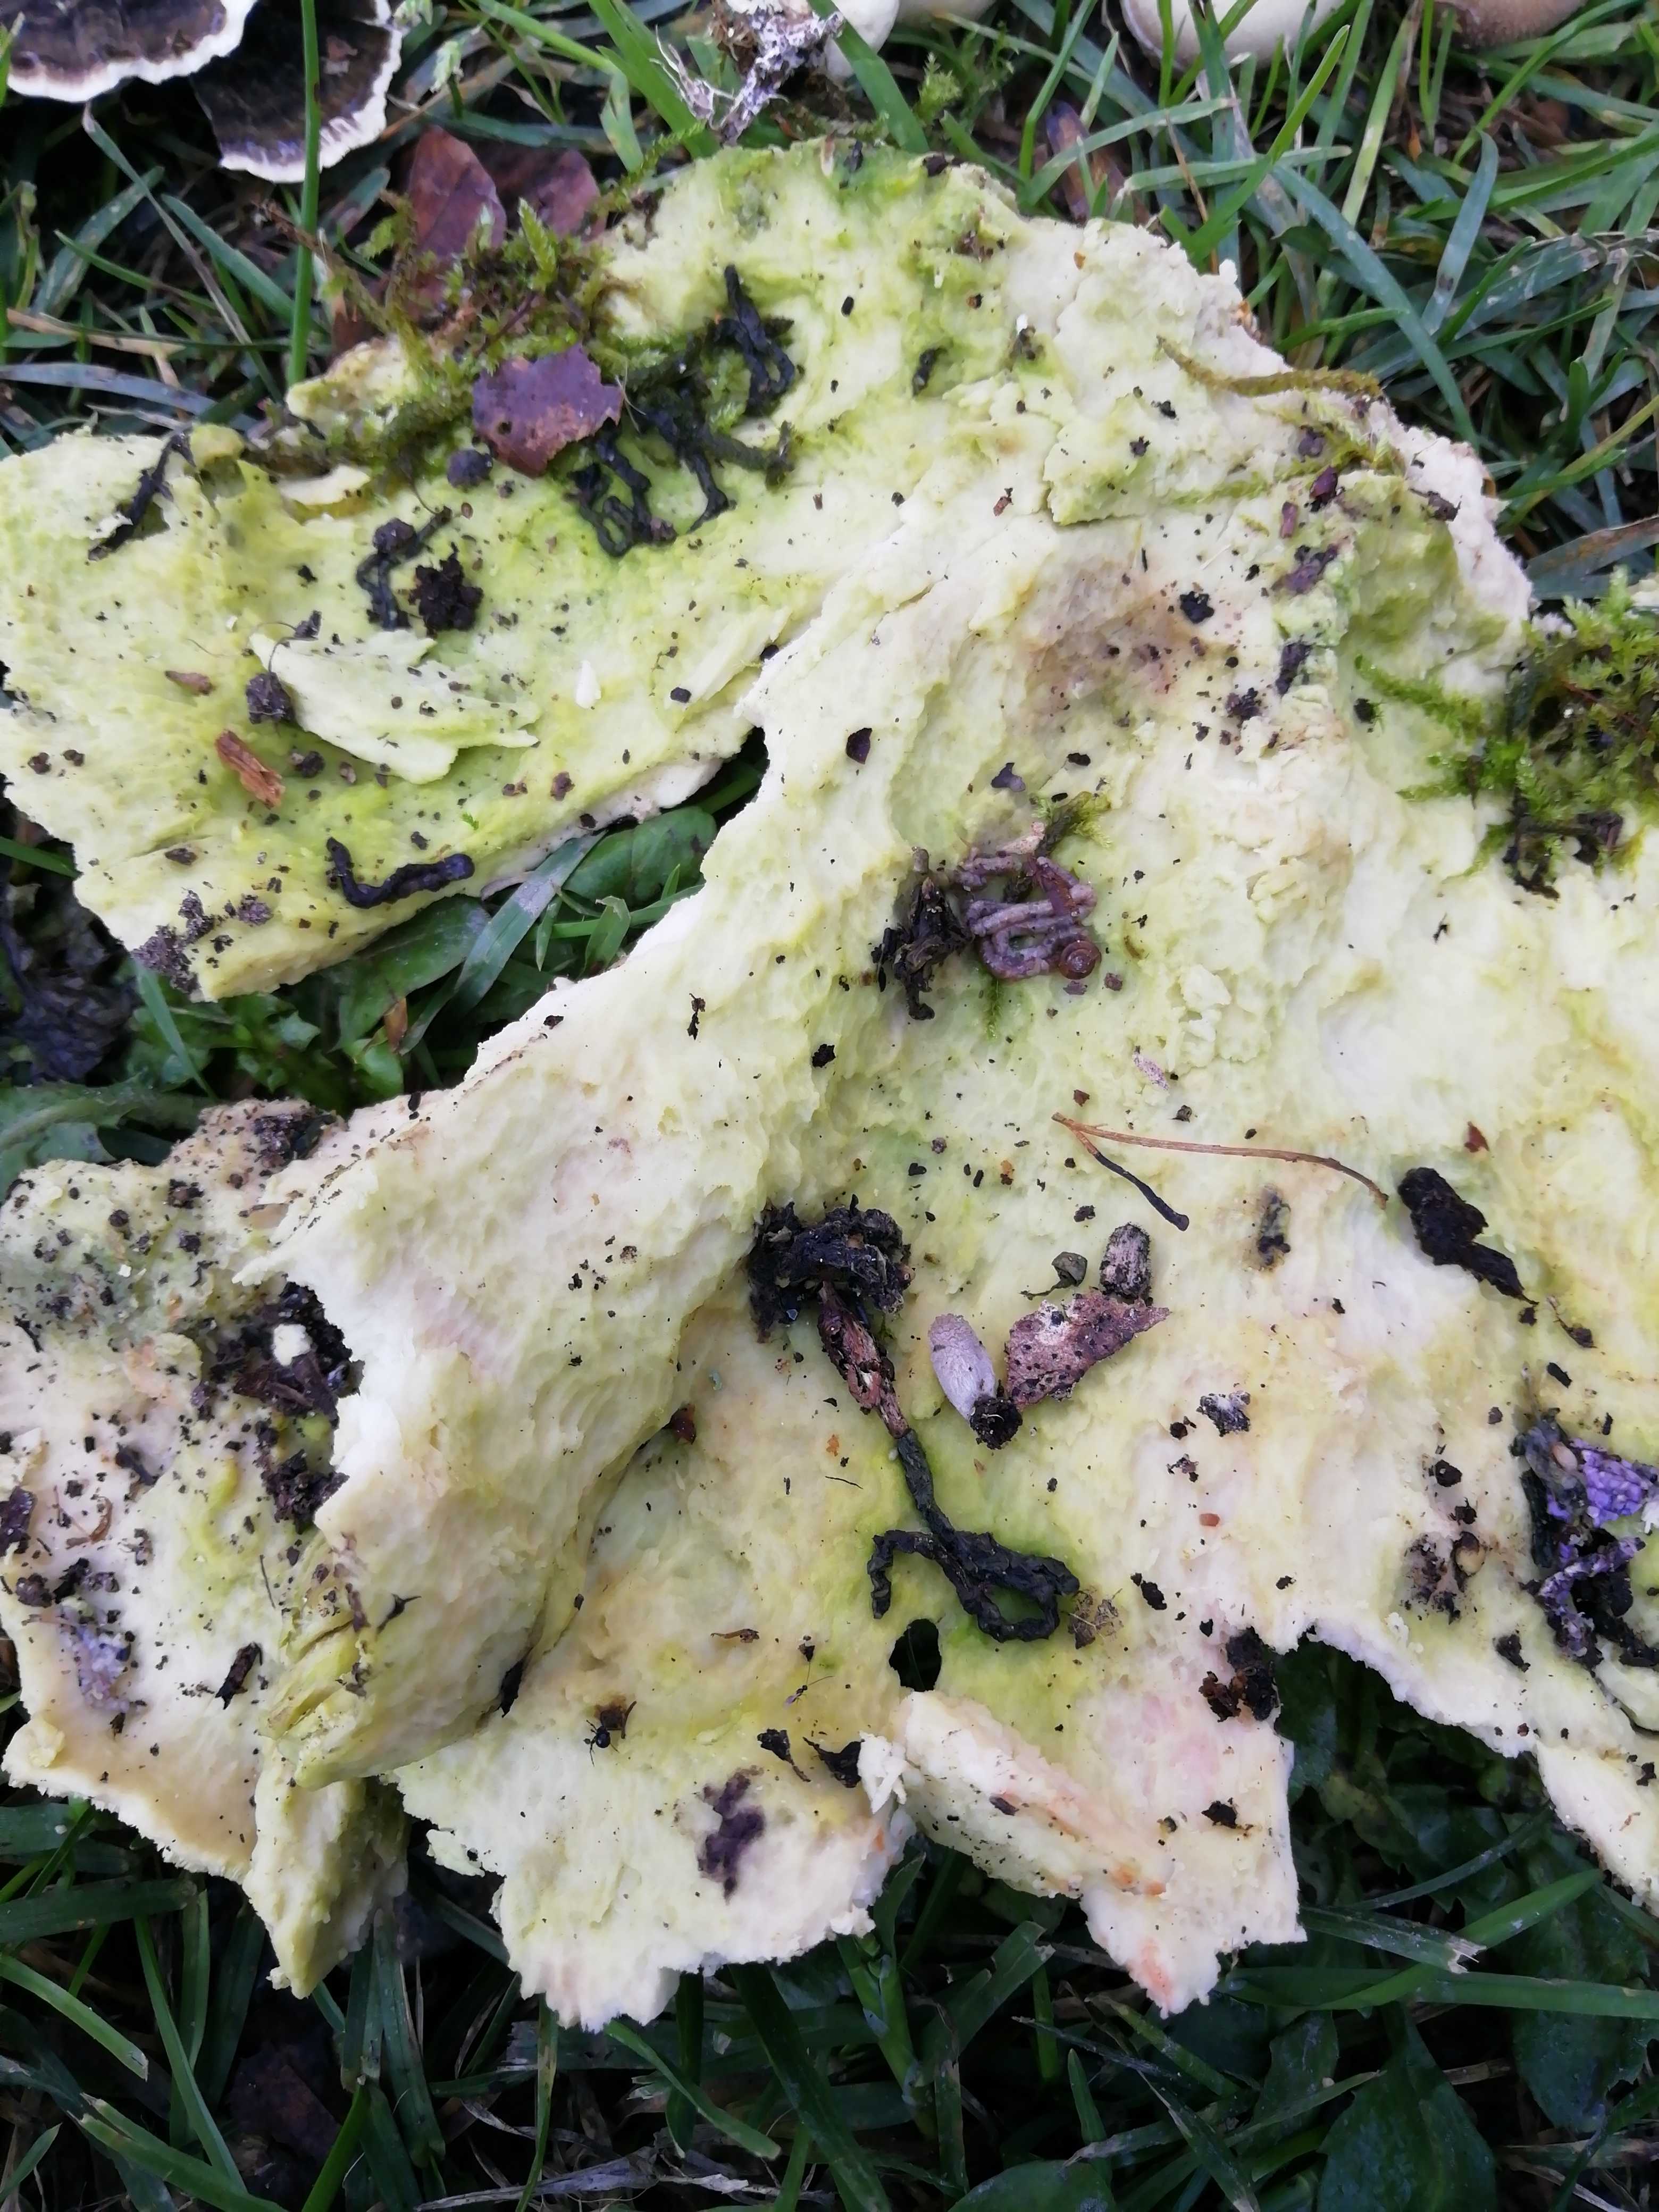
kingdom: Fungi
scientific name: Fungi
